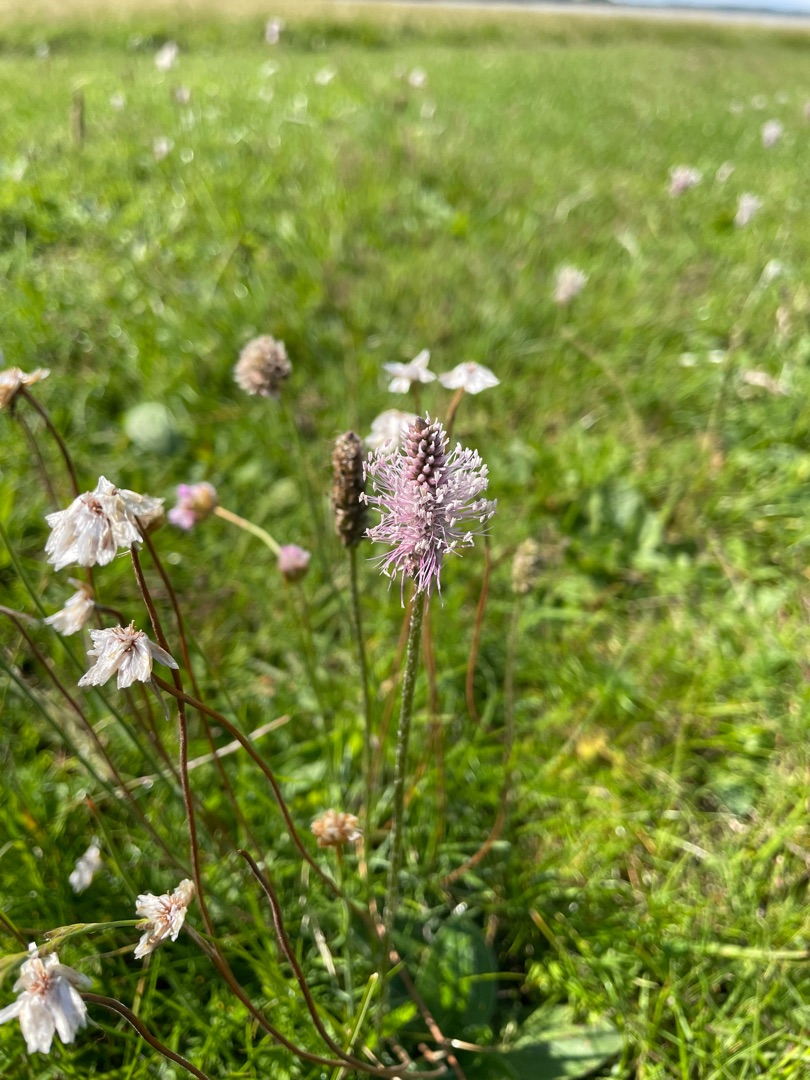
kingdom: Plantae
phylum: Tracheophyta
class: Magnoliopsida
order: Lamiales
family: Plantaginaceae
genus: Plantago
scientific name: Plantago media
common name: Dunet vejbred
